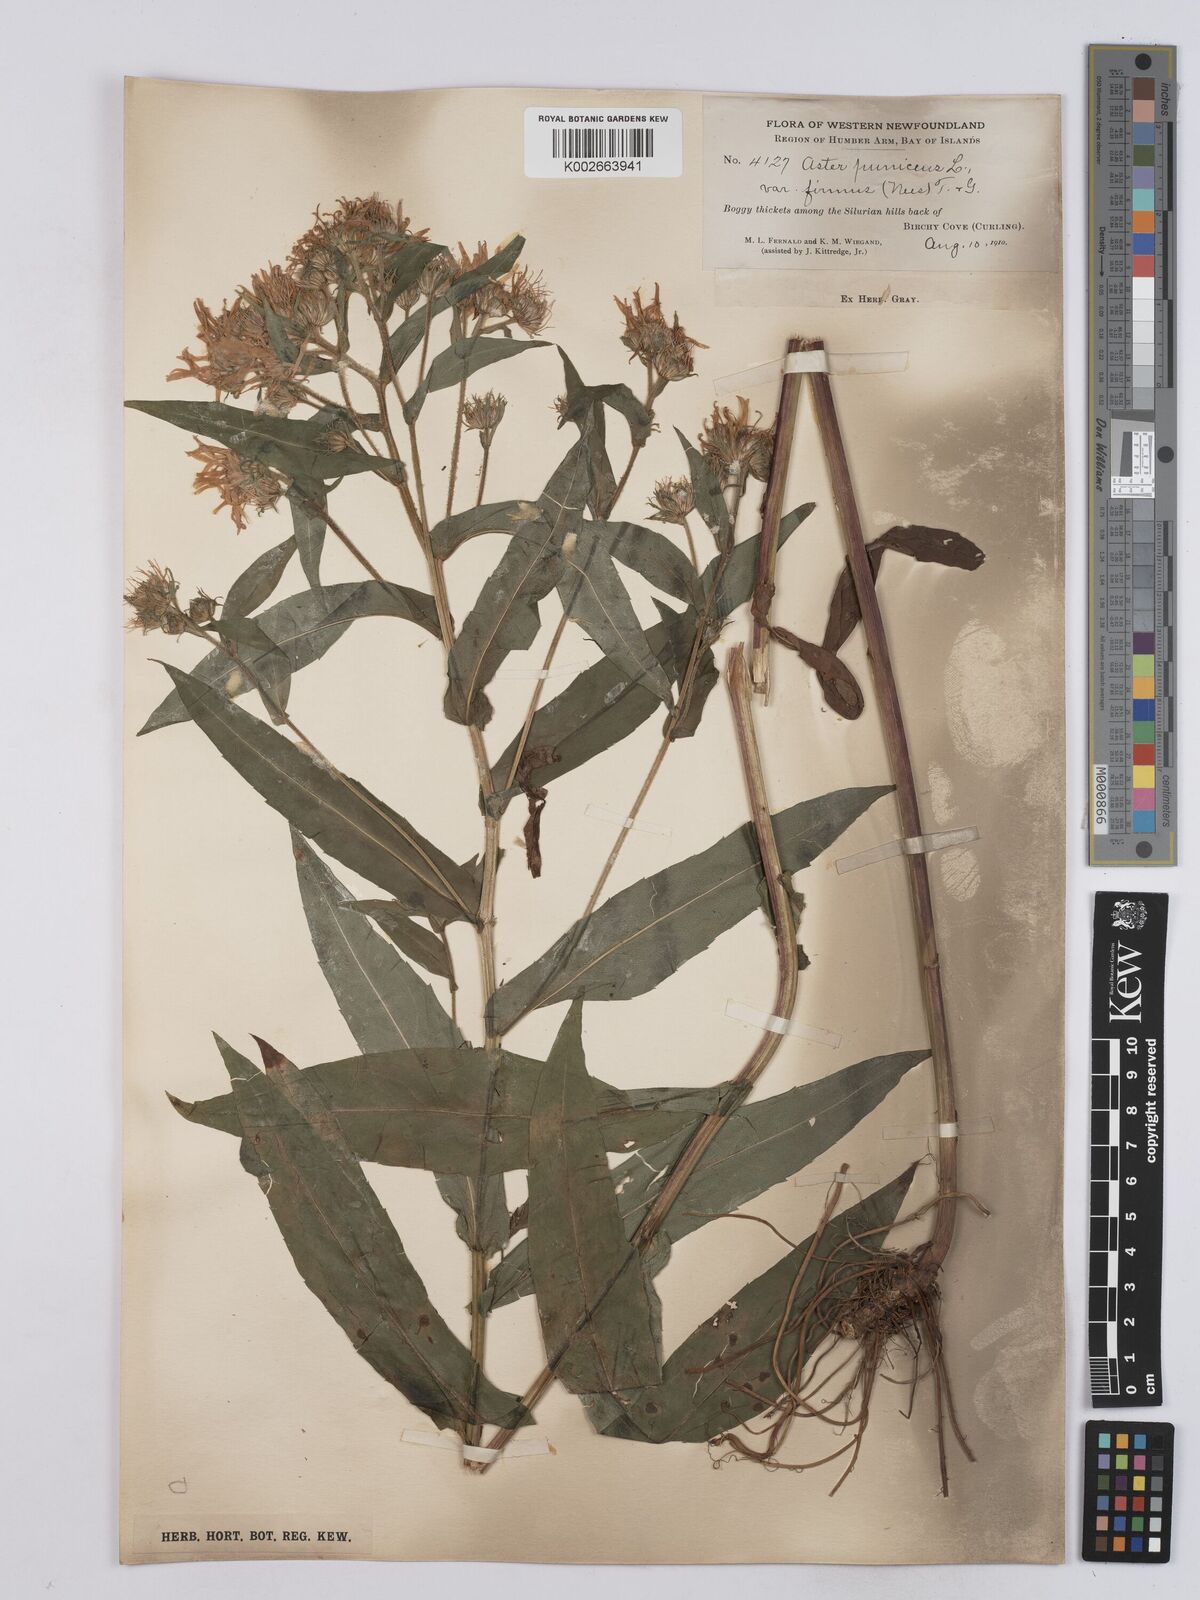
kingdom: Plantae
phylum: Tracheophyta
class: Magnoliopsida
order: Asterales
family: Asteraceae
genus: Symphyotrichum
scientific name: Symphyotrichum puniceum
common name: Bog aster
